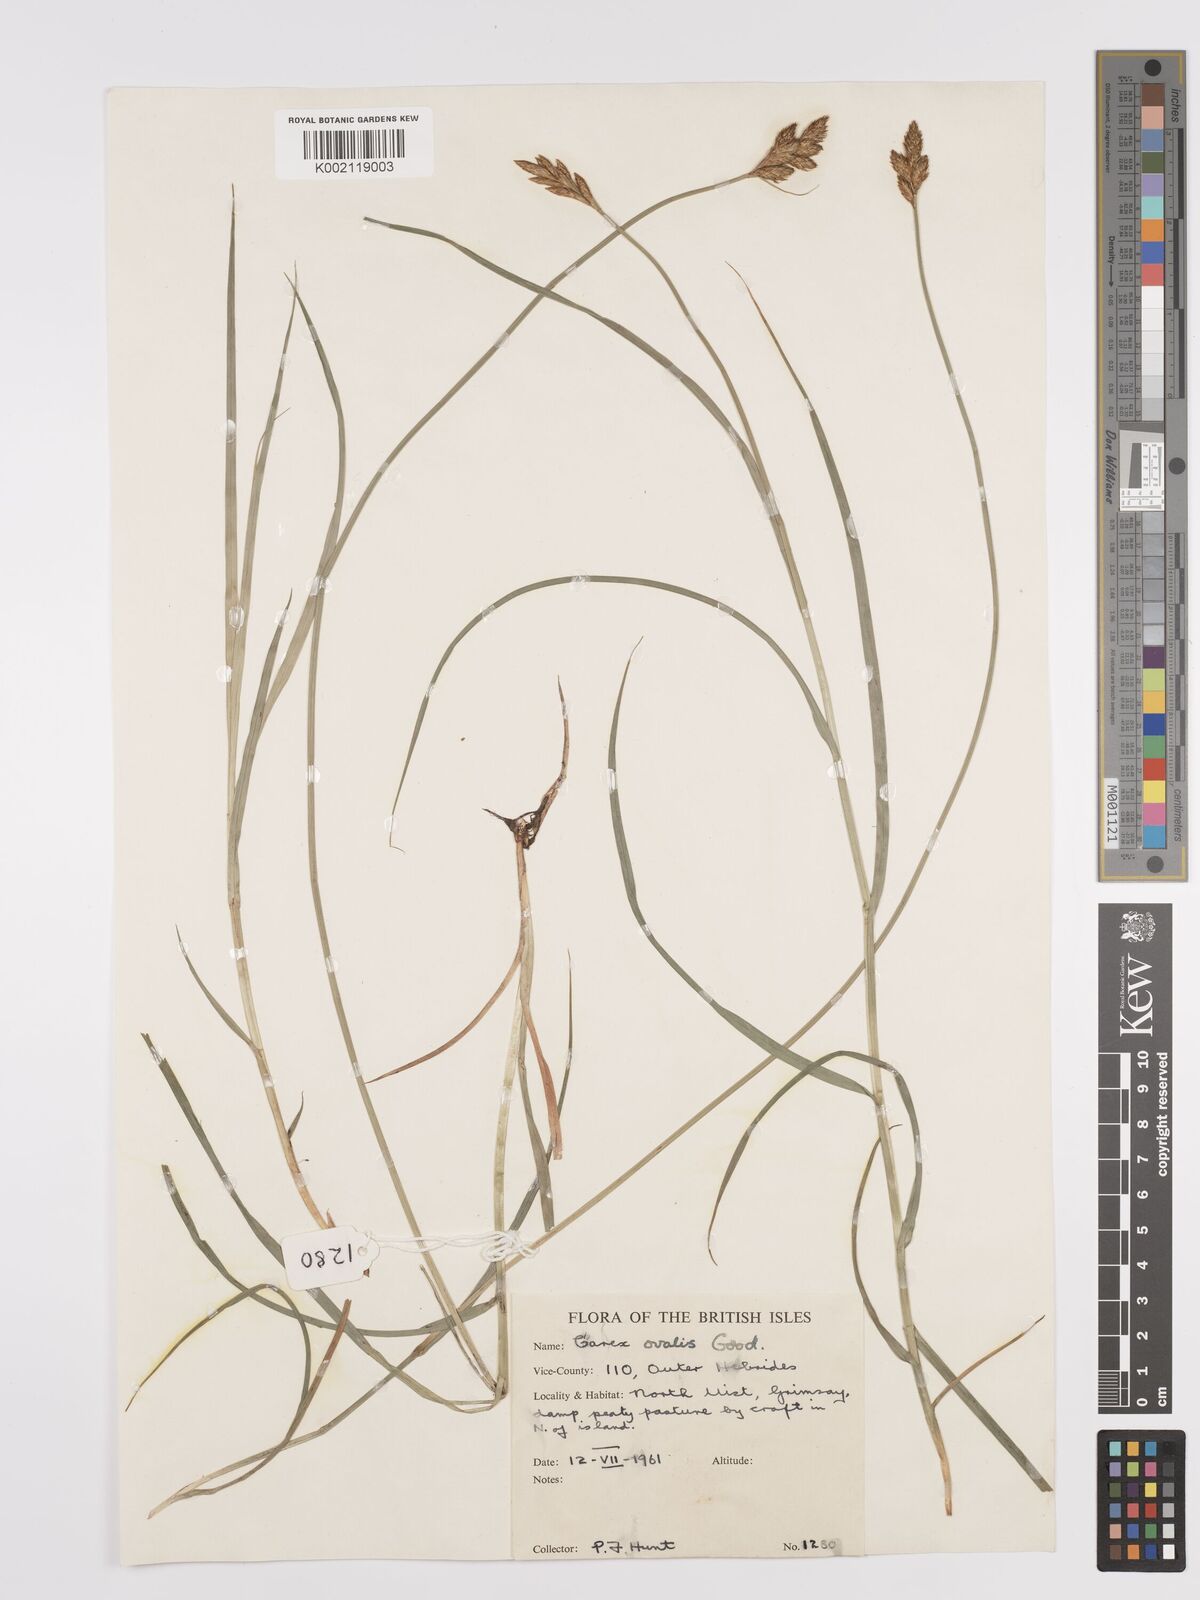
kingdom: Plantae
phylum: Tracheophyta
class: Liliopsida
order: Poales
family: Cyperaceae
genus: Carex
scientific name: Carex leporina
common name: Oval sedge
